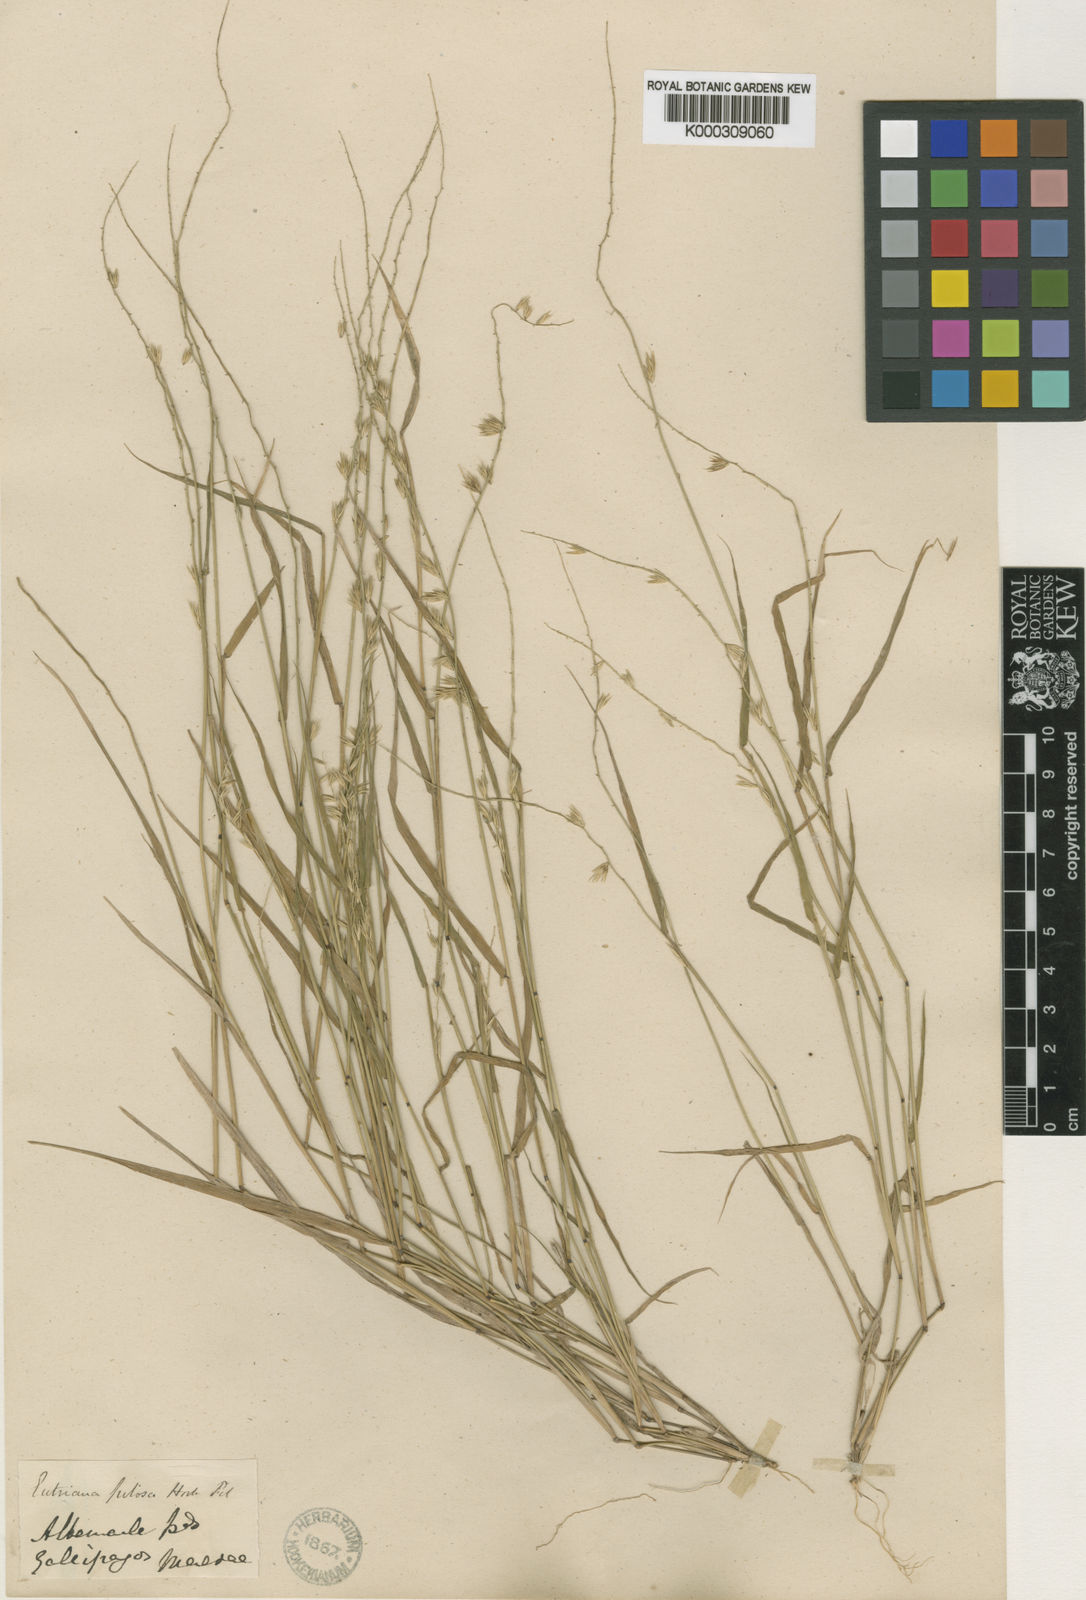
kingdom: Plantae
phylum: Tracheophyta
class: Liliopsida
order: Poales
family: Poaceae
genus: Bouteloua
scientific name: Bouteloua disticha
